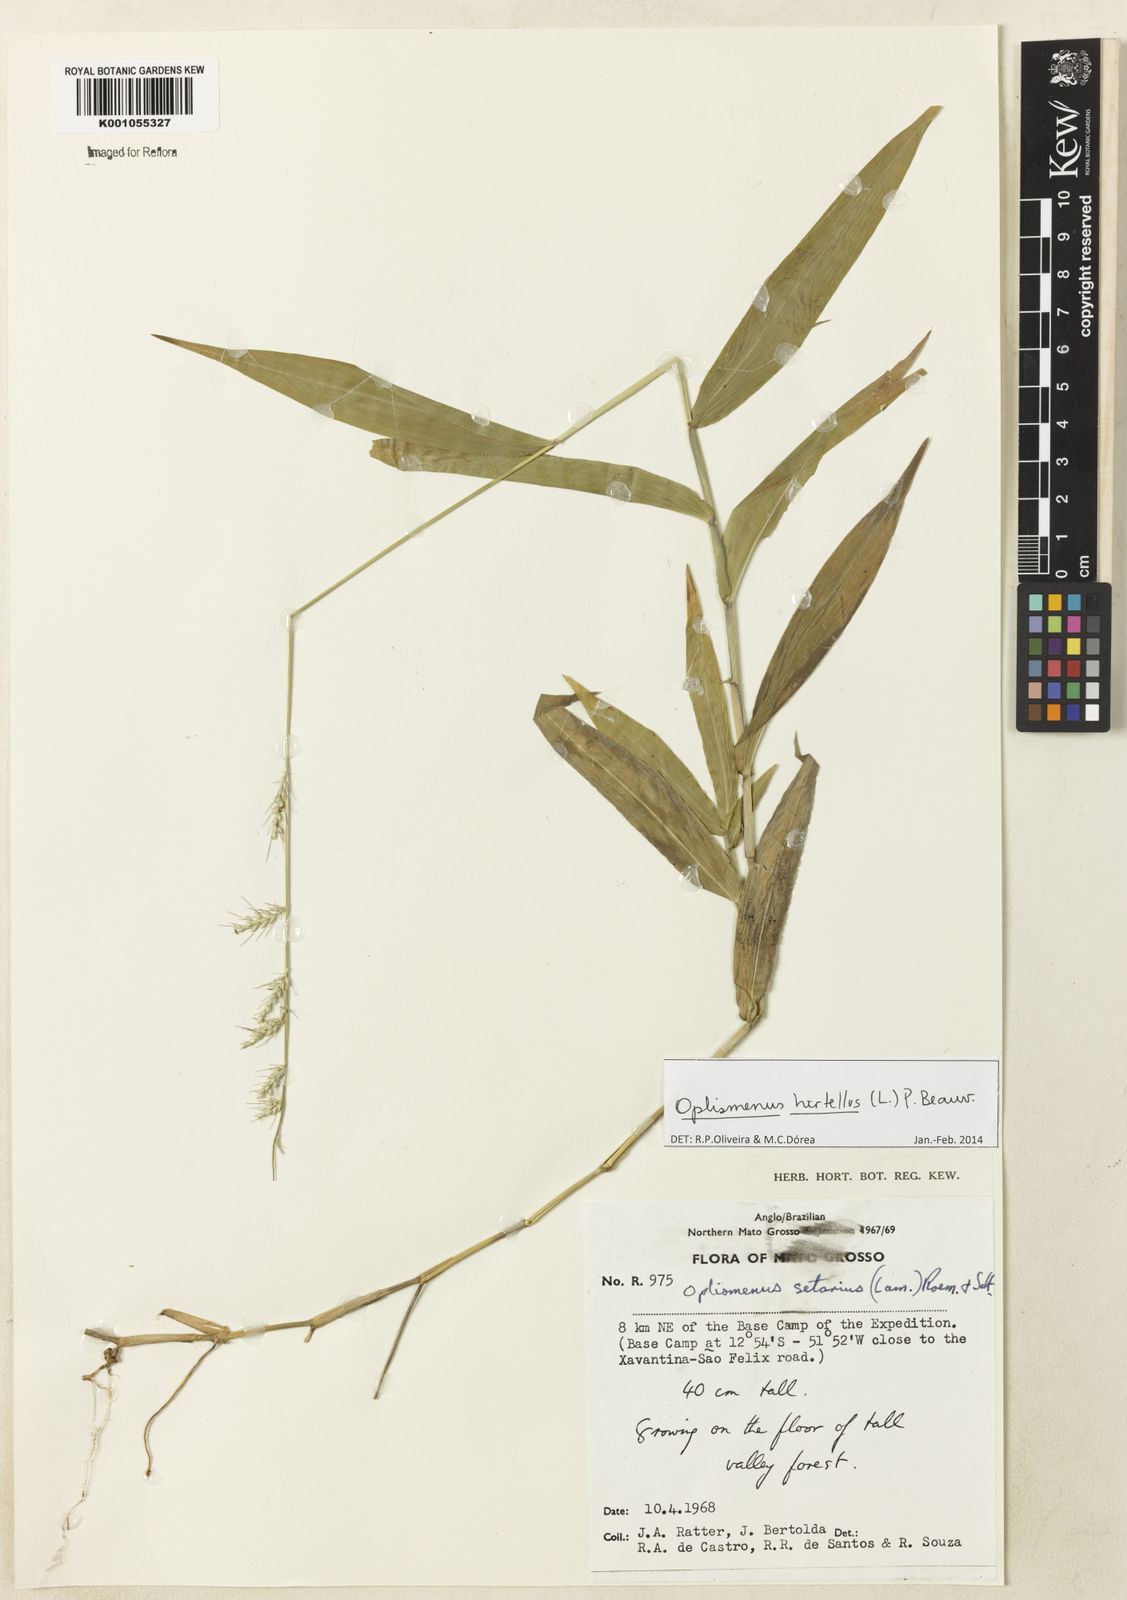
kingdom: Plantae
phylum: Tracheophyta
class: Liliopsida
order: Poales
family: Poaceae
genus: Oplismenus
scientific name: Oplismenus hirtellus
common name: Basketgrass
